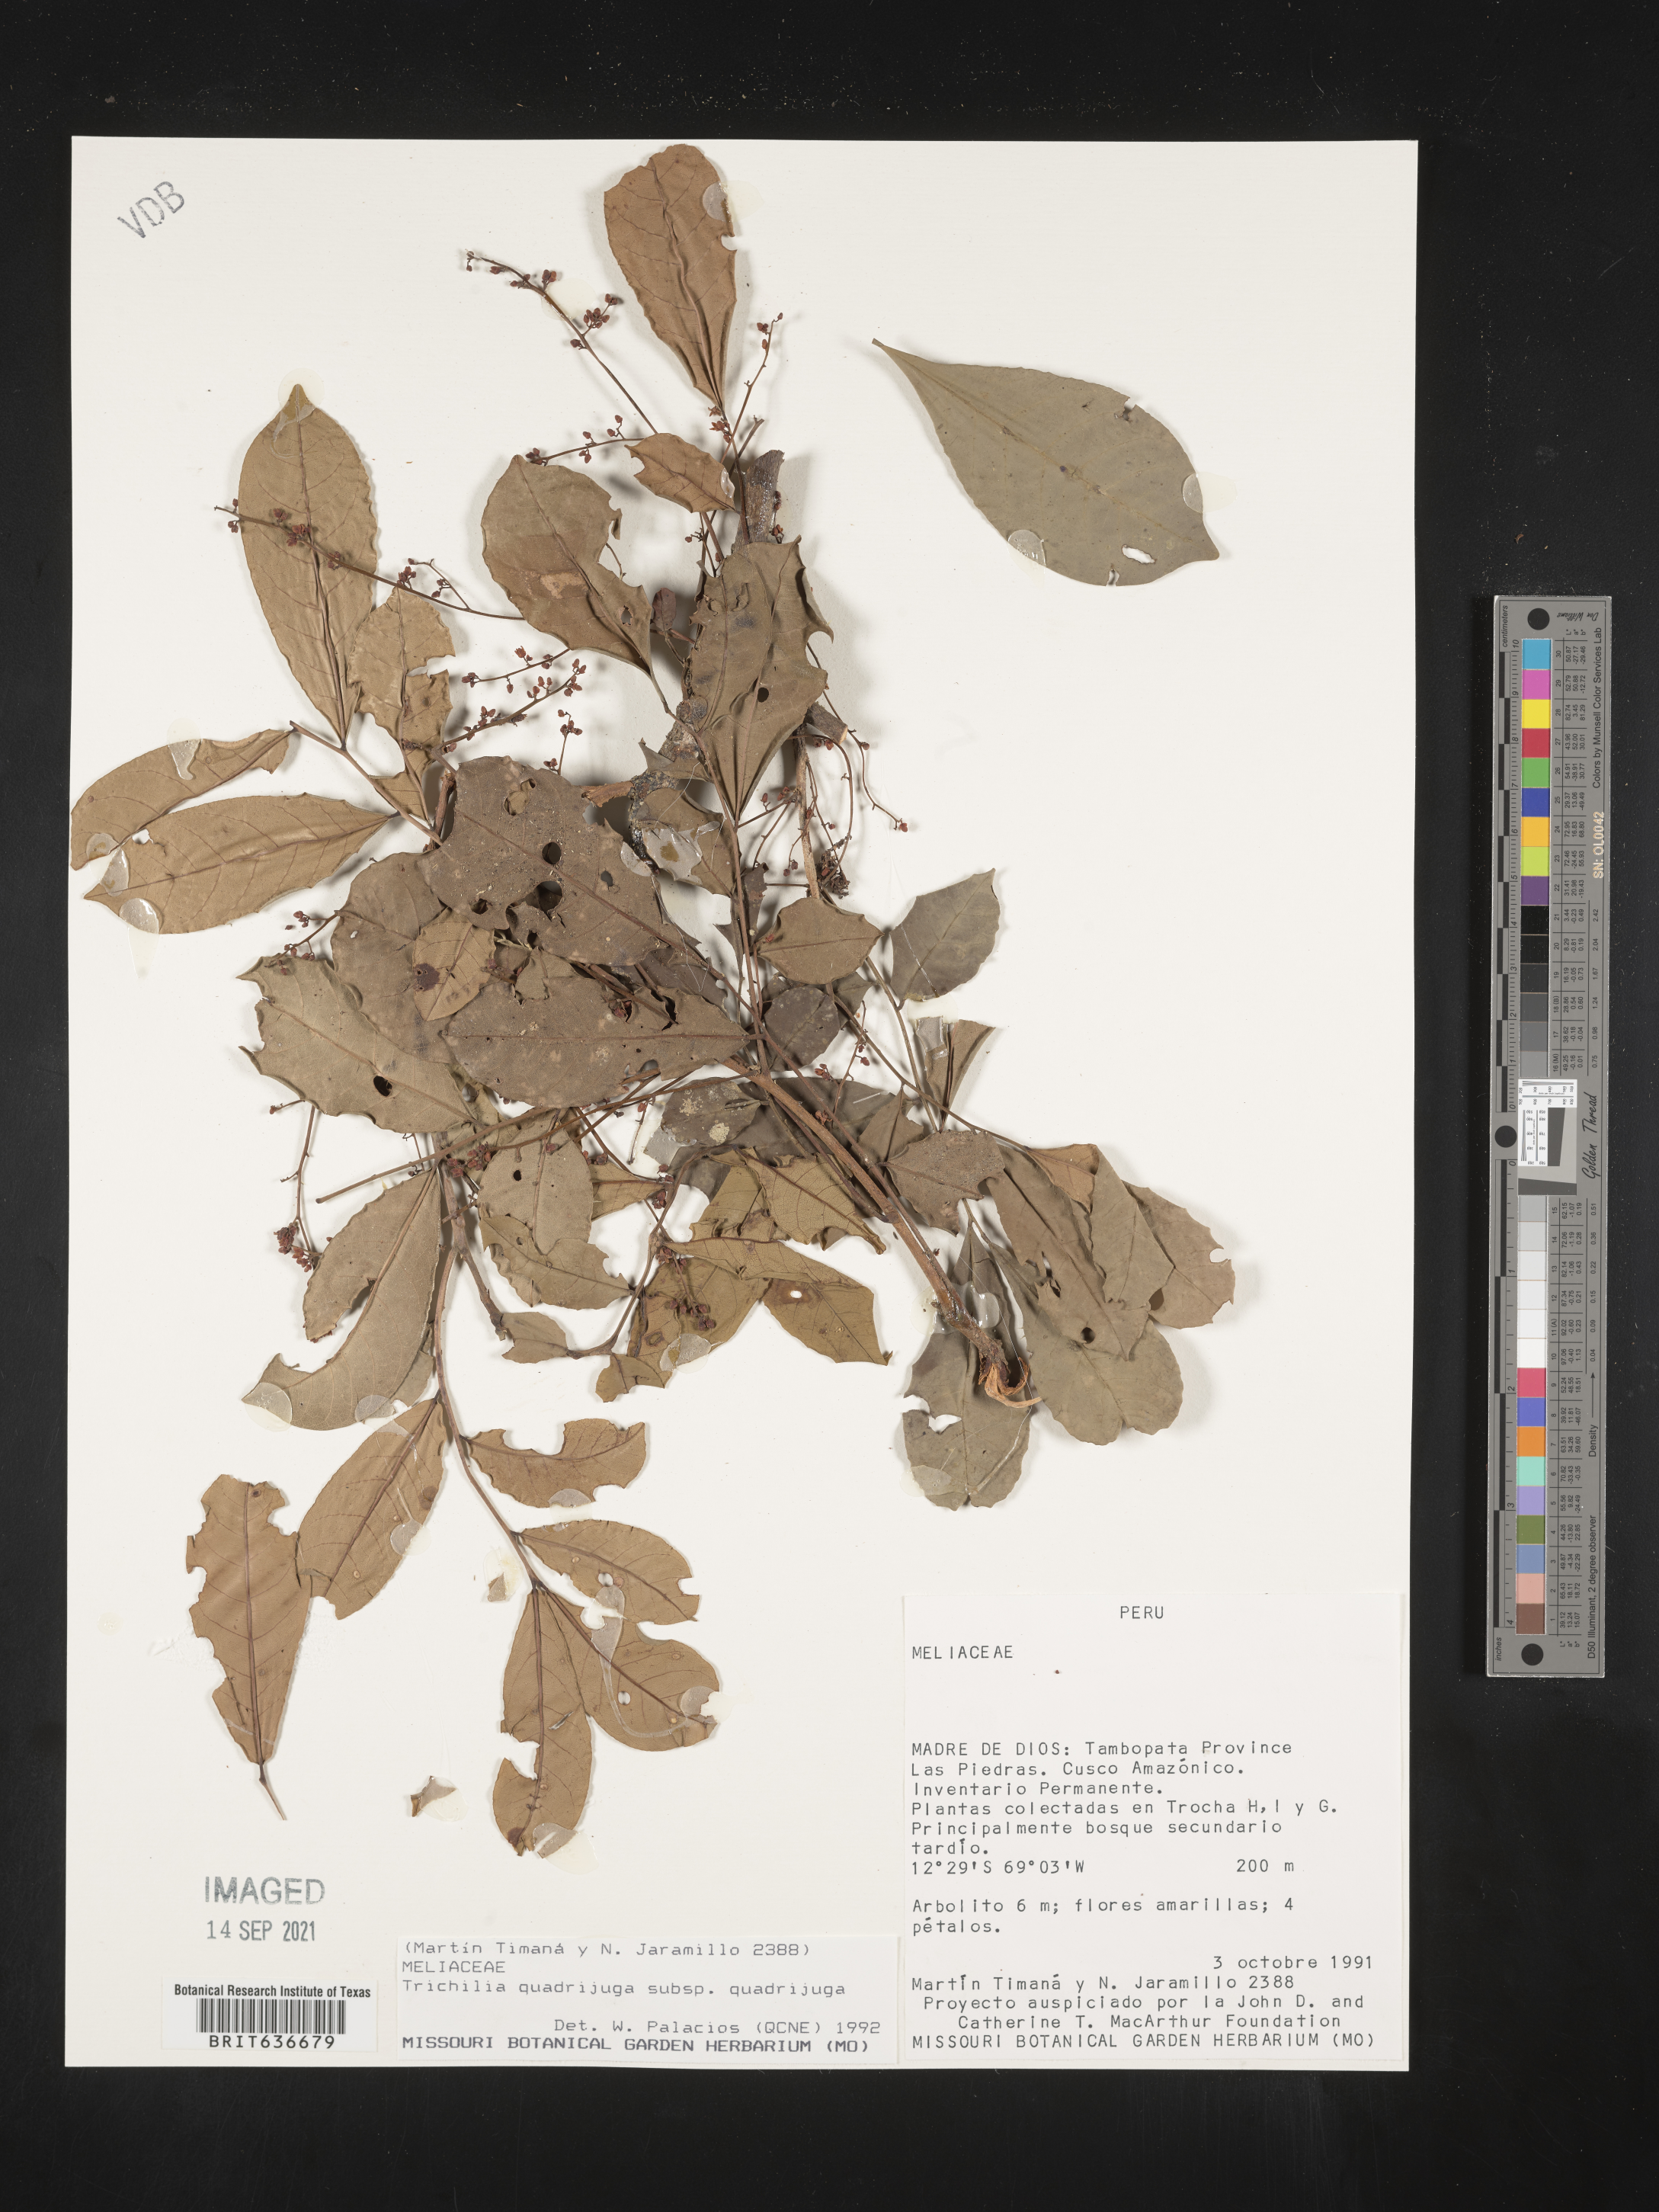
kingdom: Plantae
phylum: Tracheophyta
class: Magnoliopsida
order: Sapindales
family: Meliaceae
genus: Trichilia
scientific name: Trichilia
